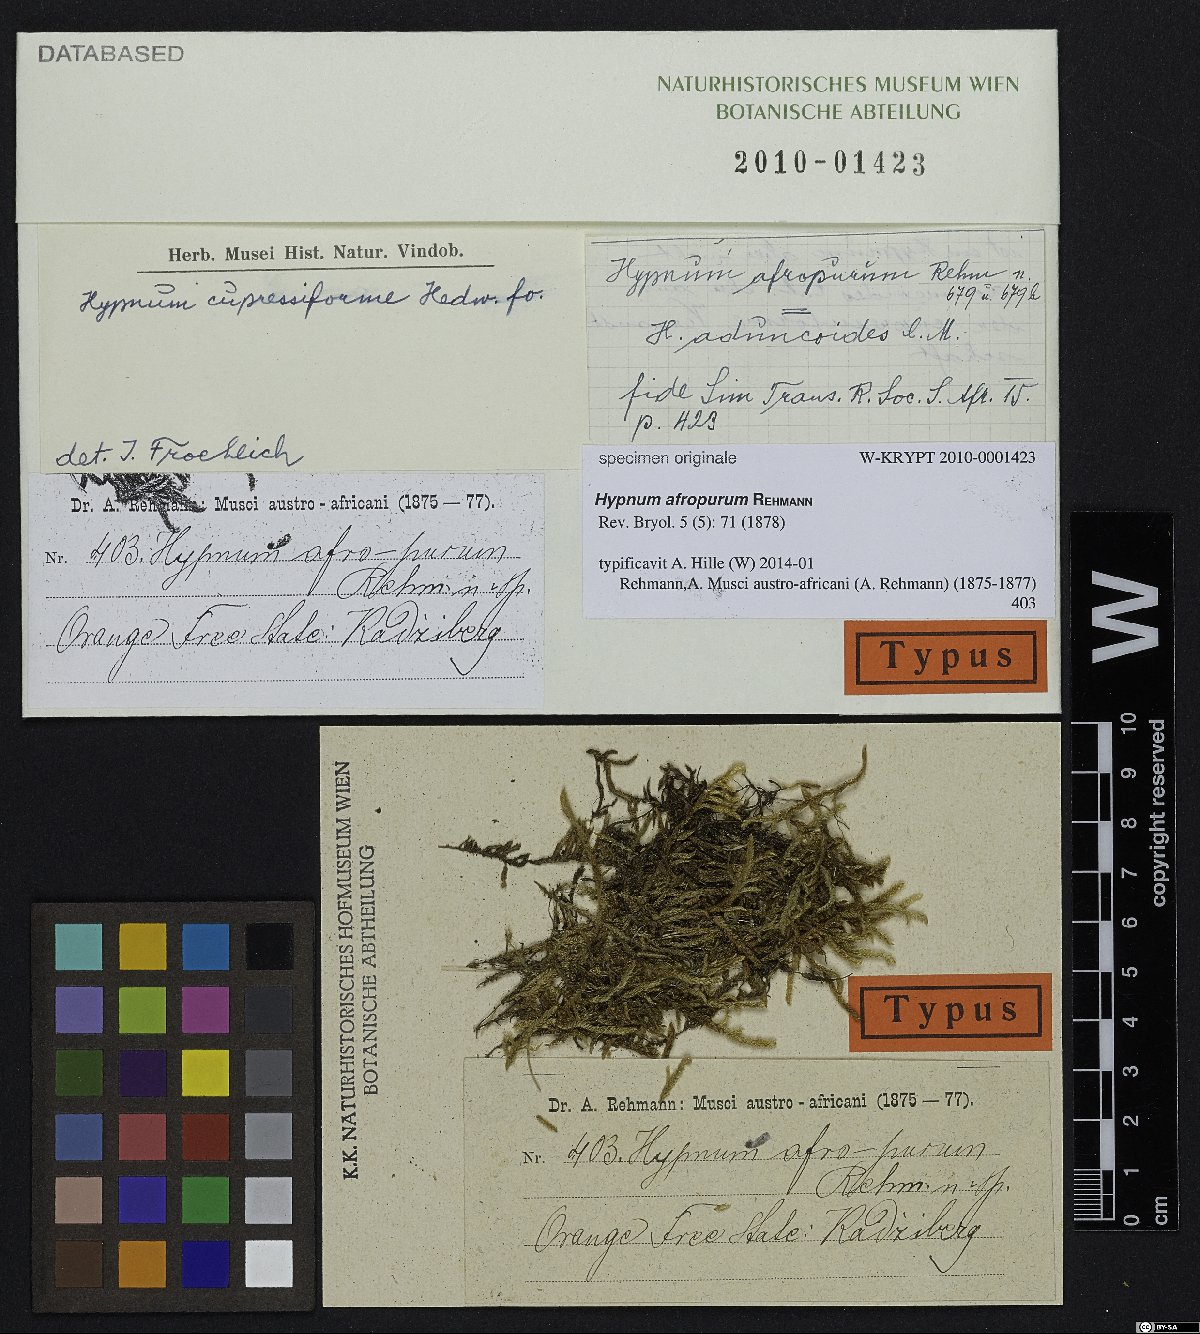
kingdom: Plantae
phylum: Bryophyta
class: Bryopsida
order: Hypnales
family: Hypnaceae
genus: Hypnum
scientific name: Hypnum
